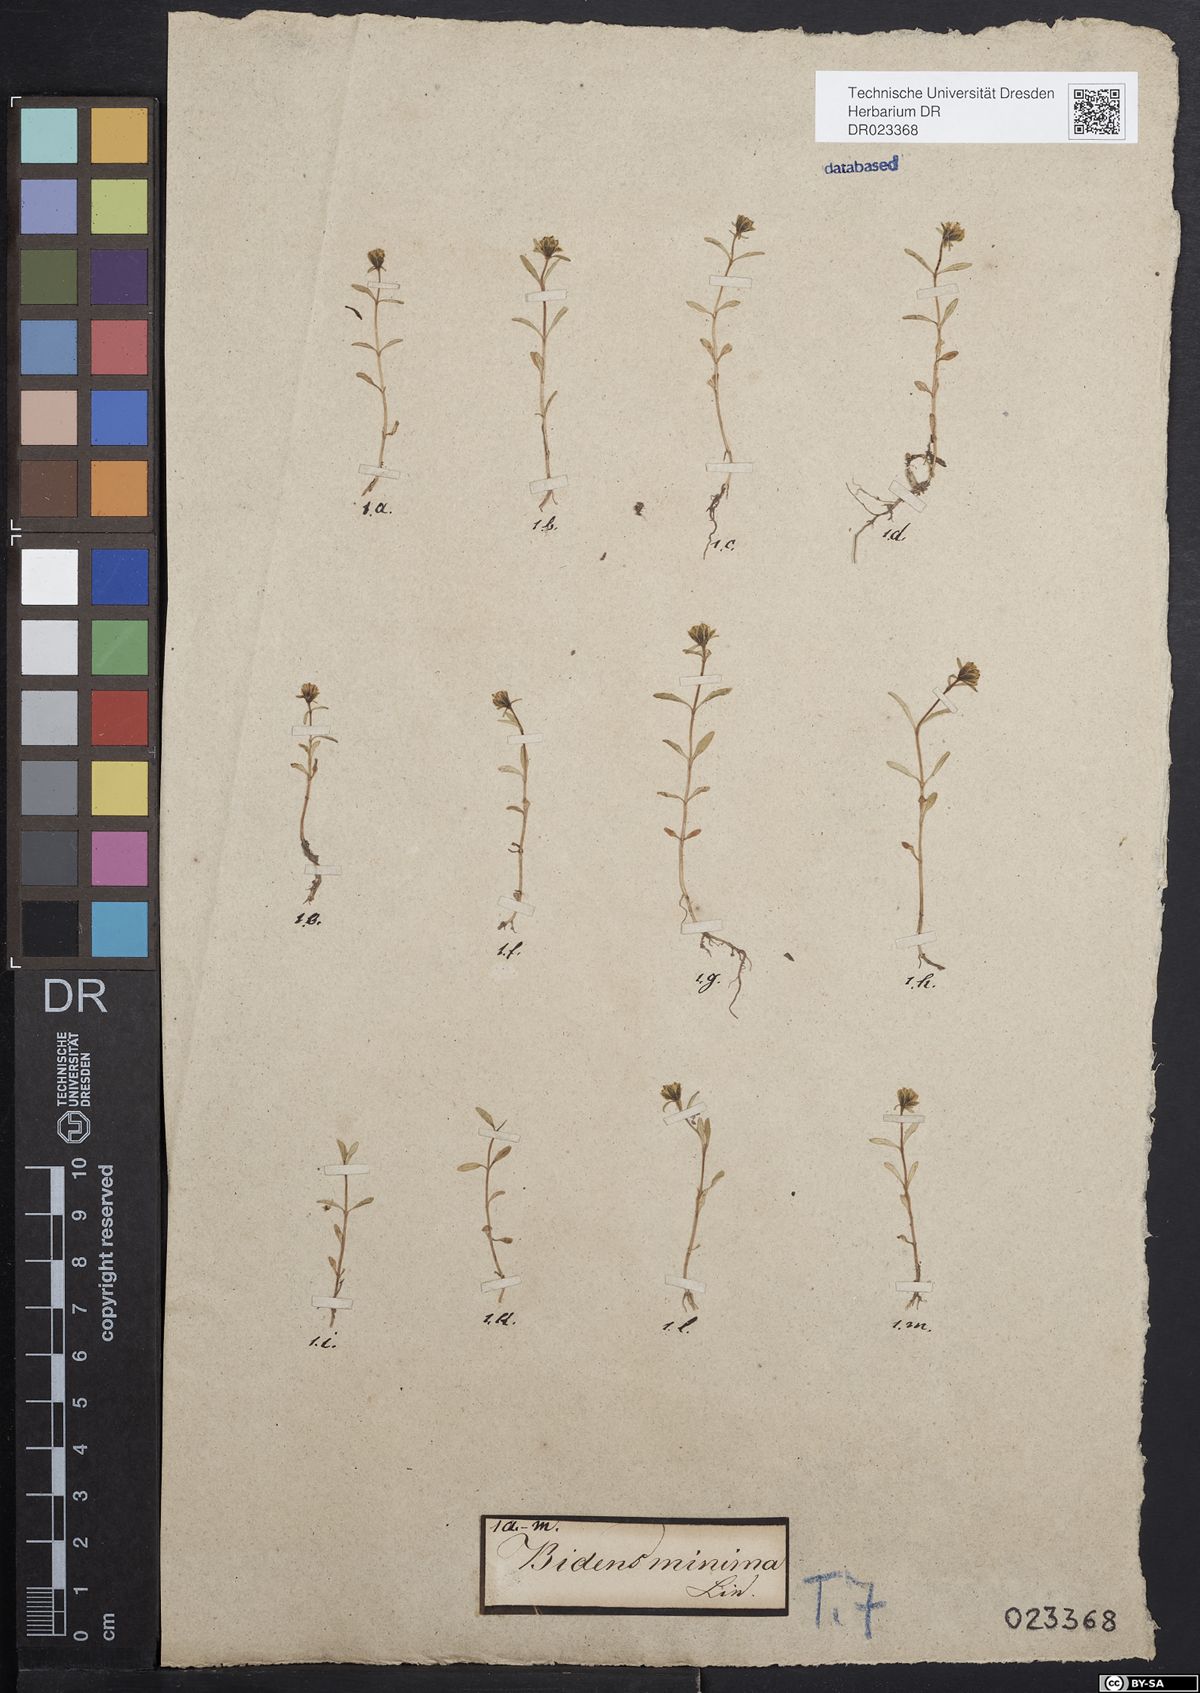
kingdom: Plantae
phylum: Tracheophyta
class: Magnoliopsida
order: Asterales
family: Asteraceae
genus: Bidens
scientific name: Bidens cernua
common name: Nodding bur-marigold
